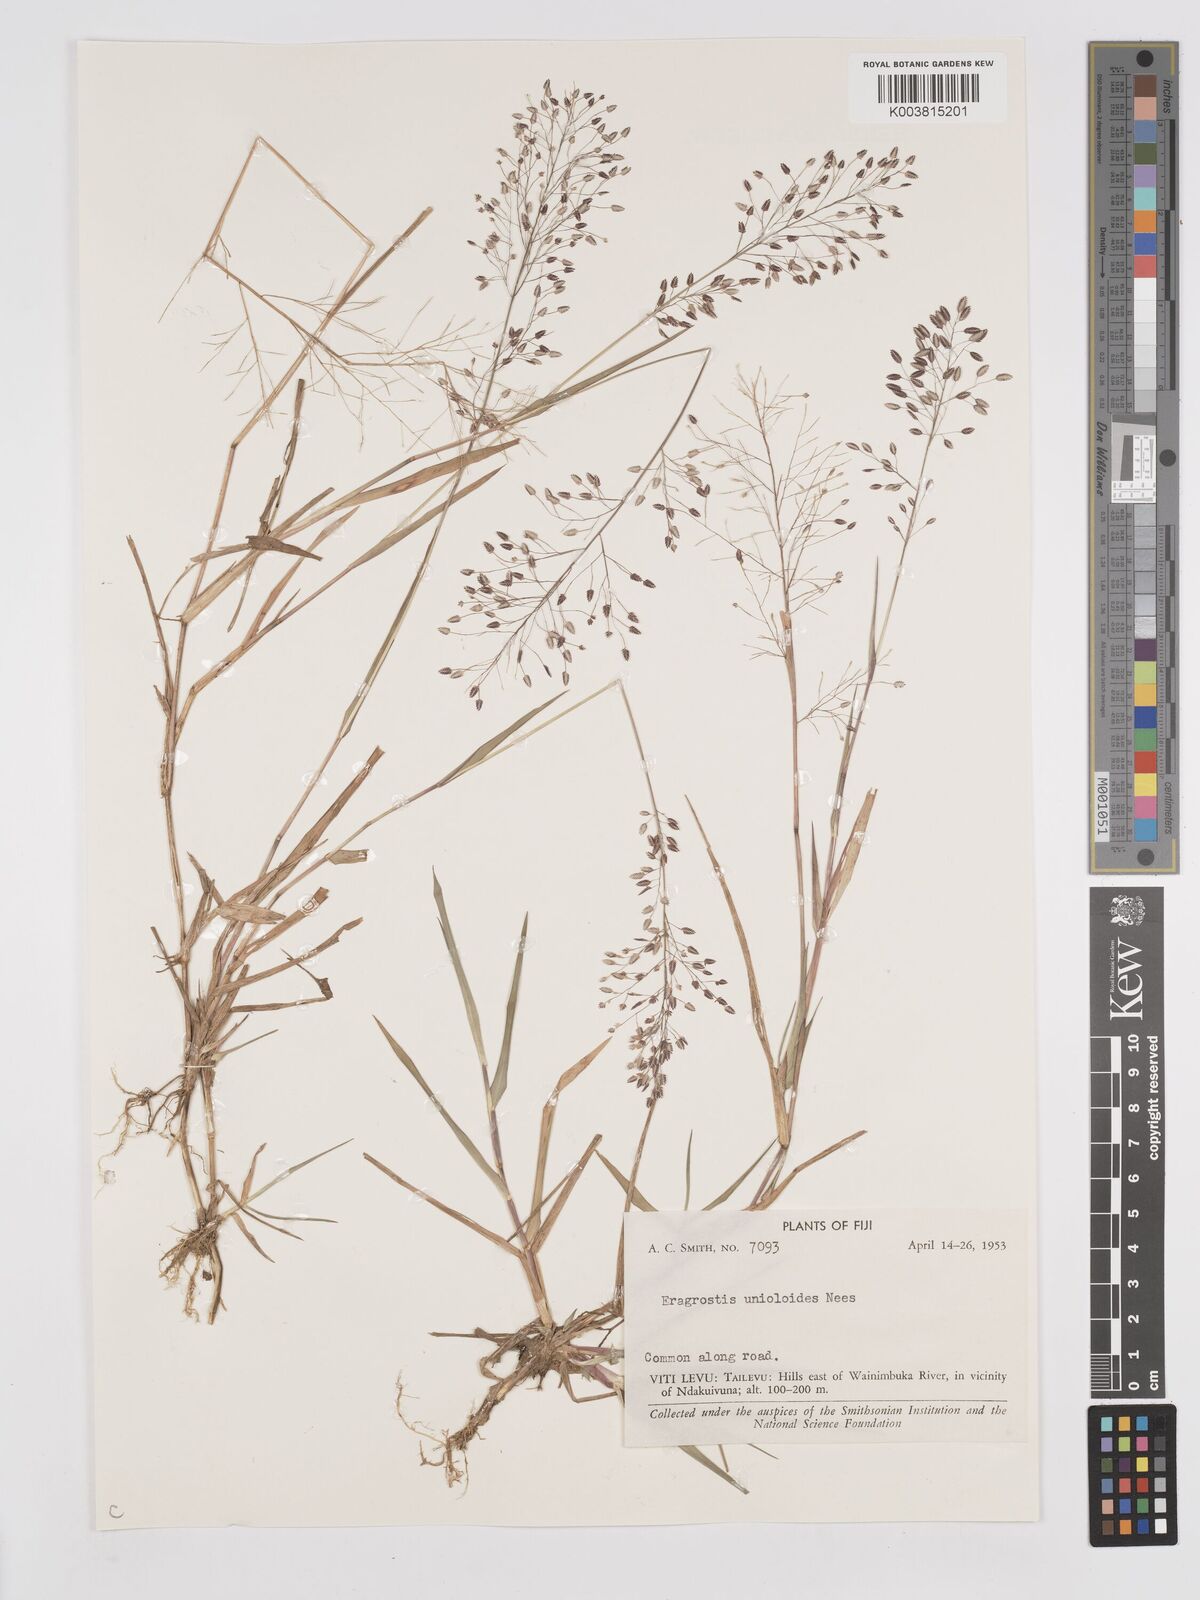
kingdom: Plantae
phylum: Tracheophyta
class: Liliopsida
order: Poales
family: Poaceae
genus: Eragrostis
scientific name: Eragrostis unioloides
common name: Chinese lovegrass
